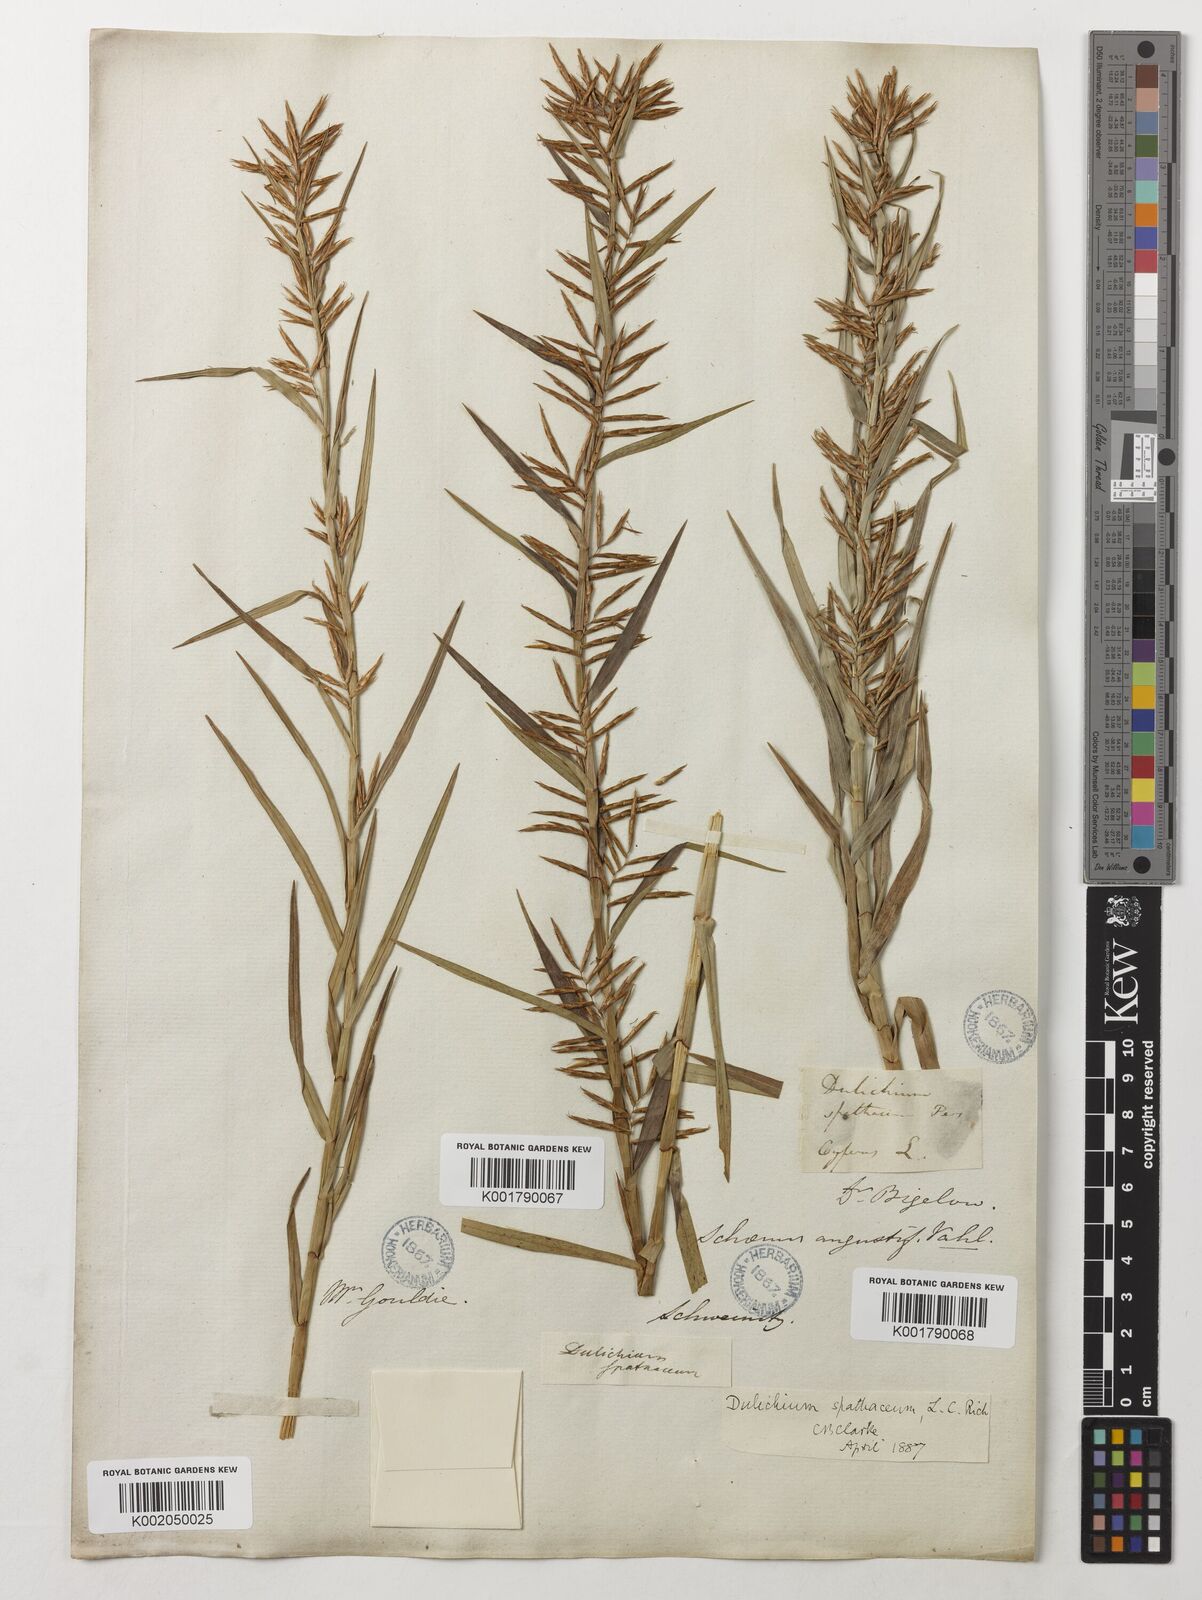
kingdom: Plantae
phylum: Tracheophyta
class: Liliopsida
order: Poales
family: Cyperaceae
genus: Dulichium
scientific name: Dulichium arundinaceum
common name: Three-way sedge
